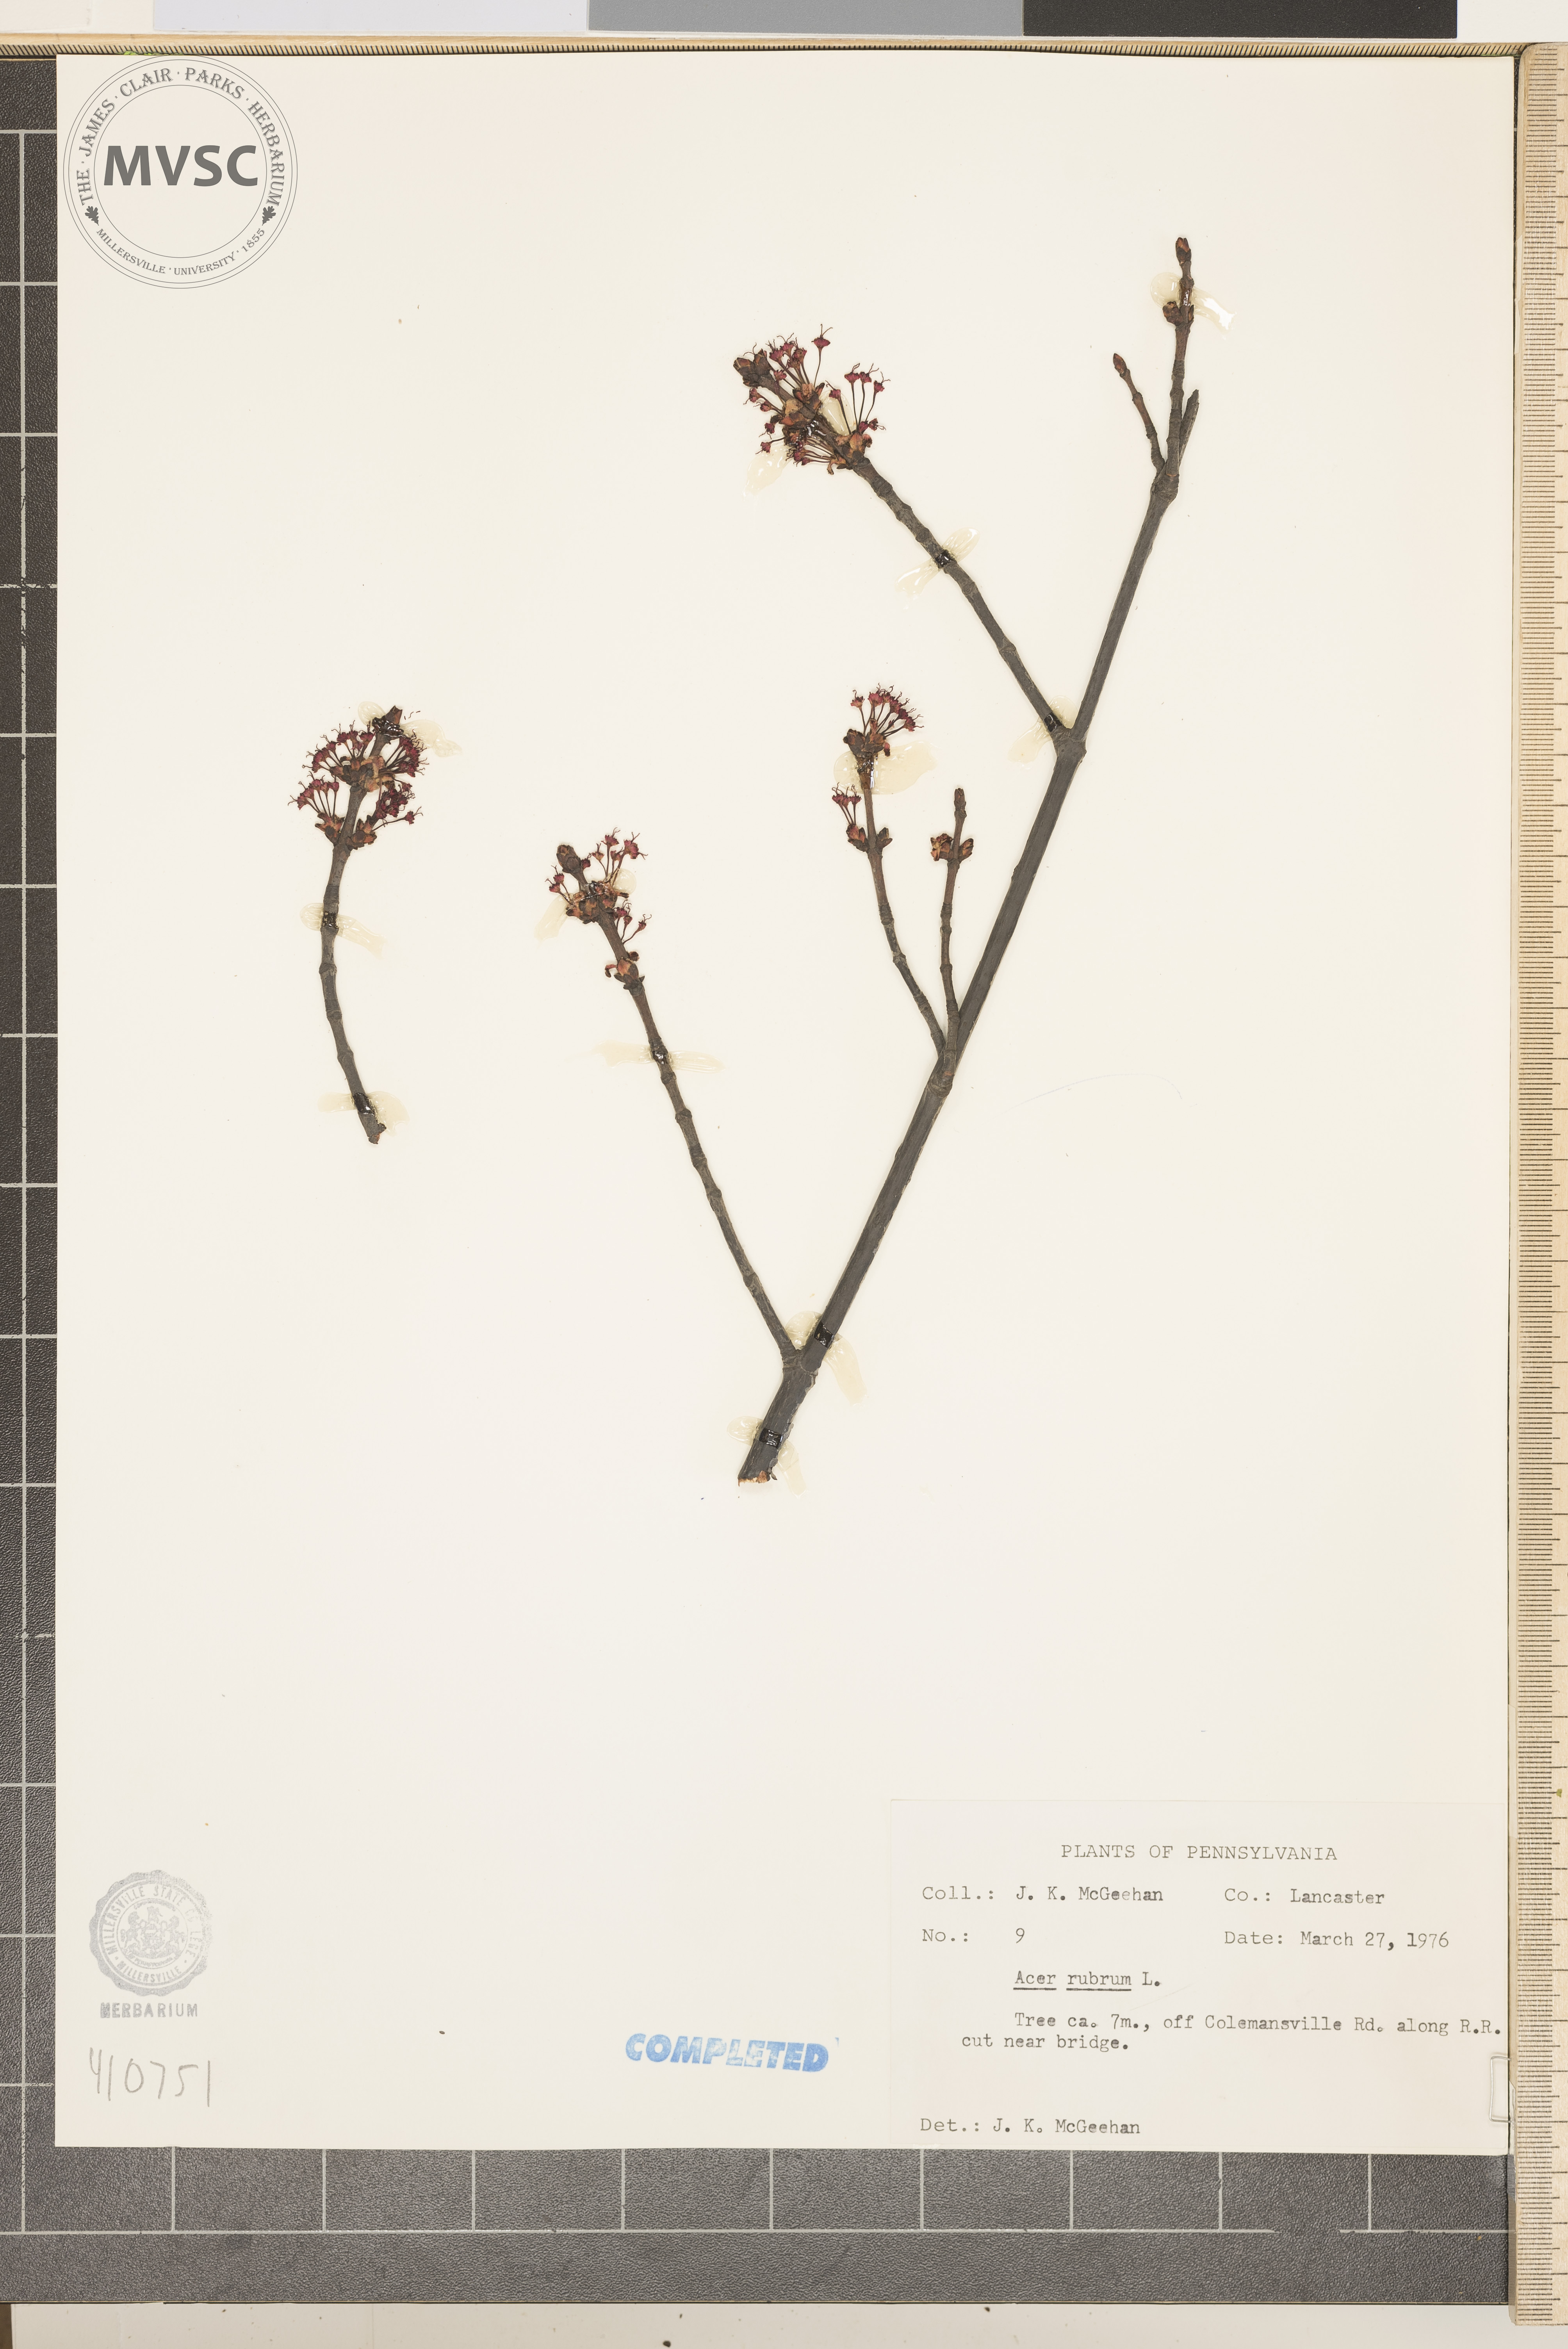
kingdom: Plantae
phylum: Tracheophyta
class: Magnoliopsida
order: Sapindales
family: Sapindaceae
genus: Acer
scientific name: Acer rubrum
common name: Red maple
